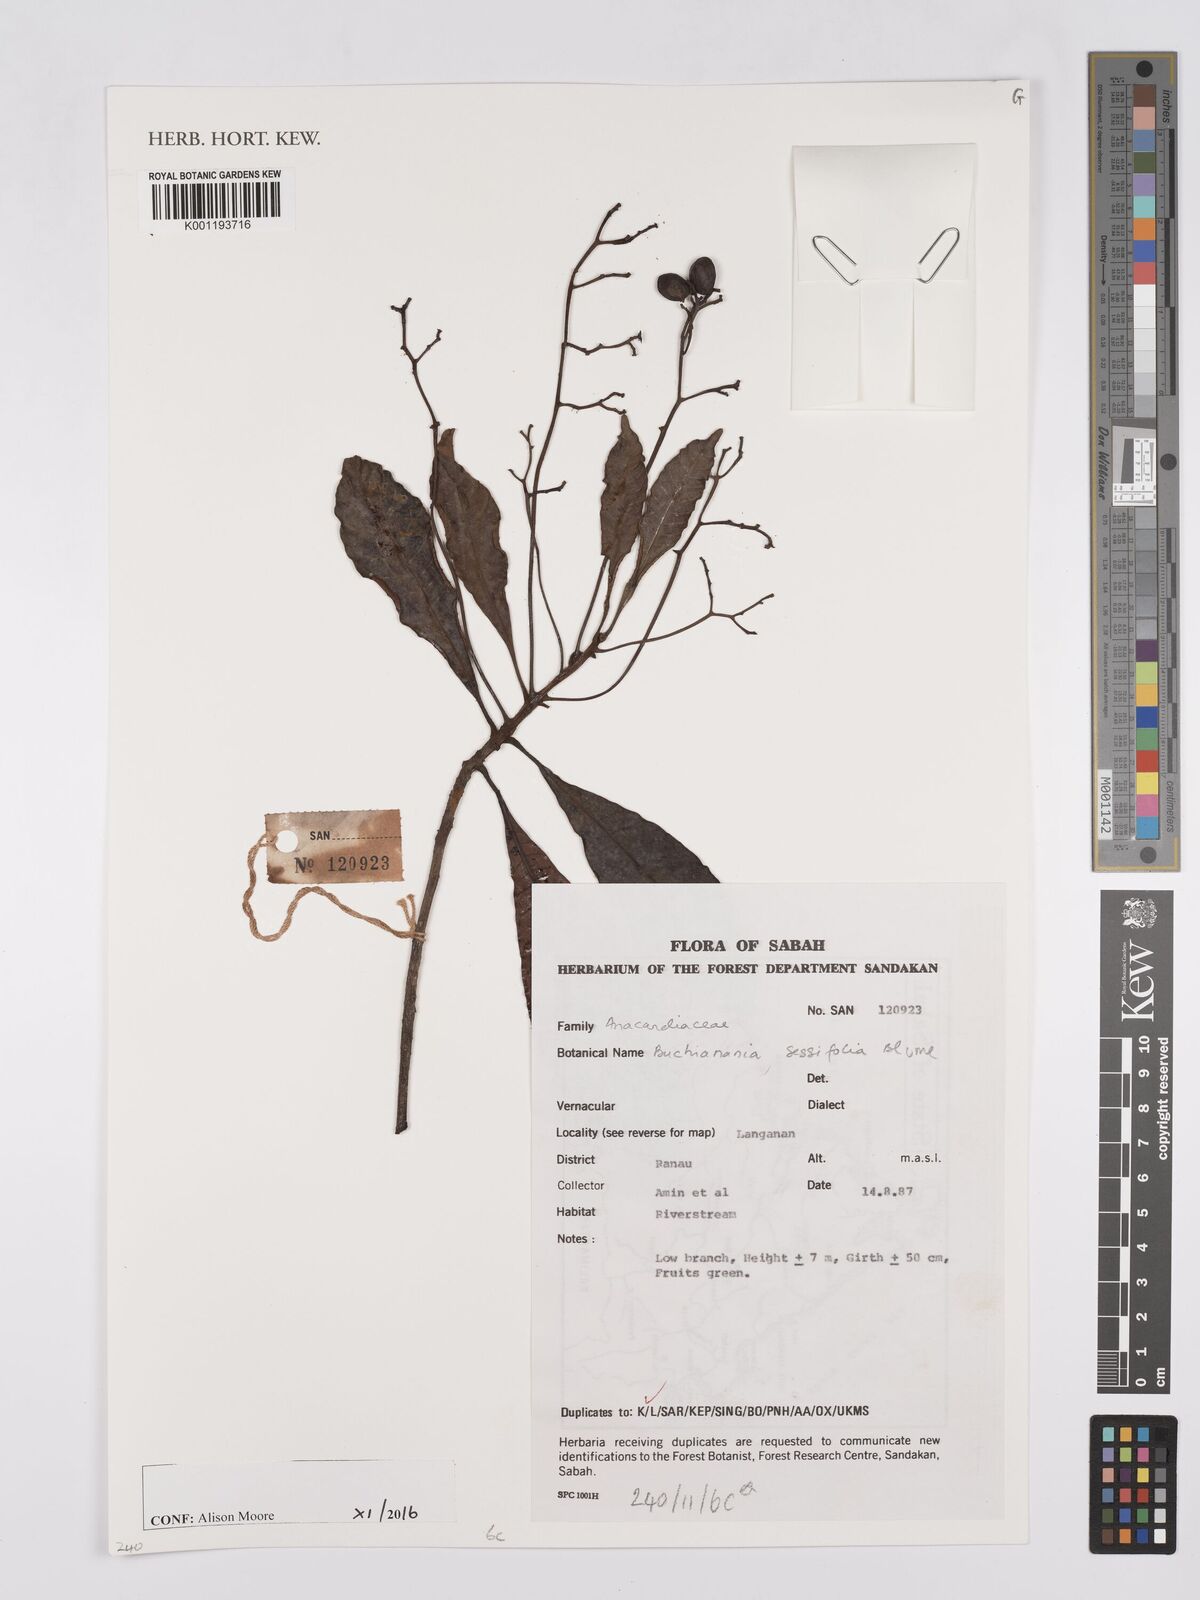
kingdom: Plantae
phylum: Tracheophyta
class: Magnoliopsida
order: Sapindales
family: Anacardiaceae
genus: Buchanania
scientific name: Buchanania sessifolia
